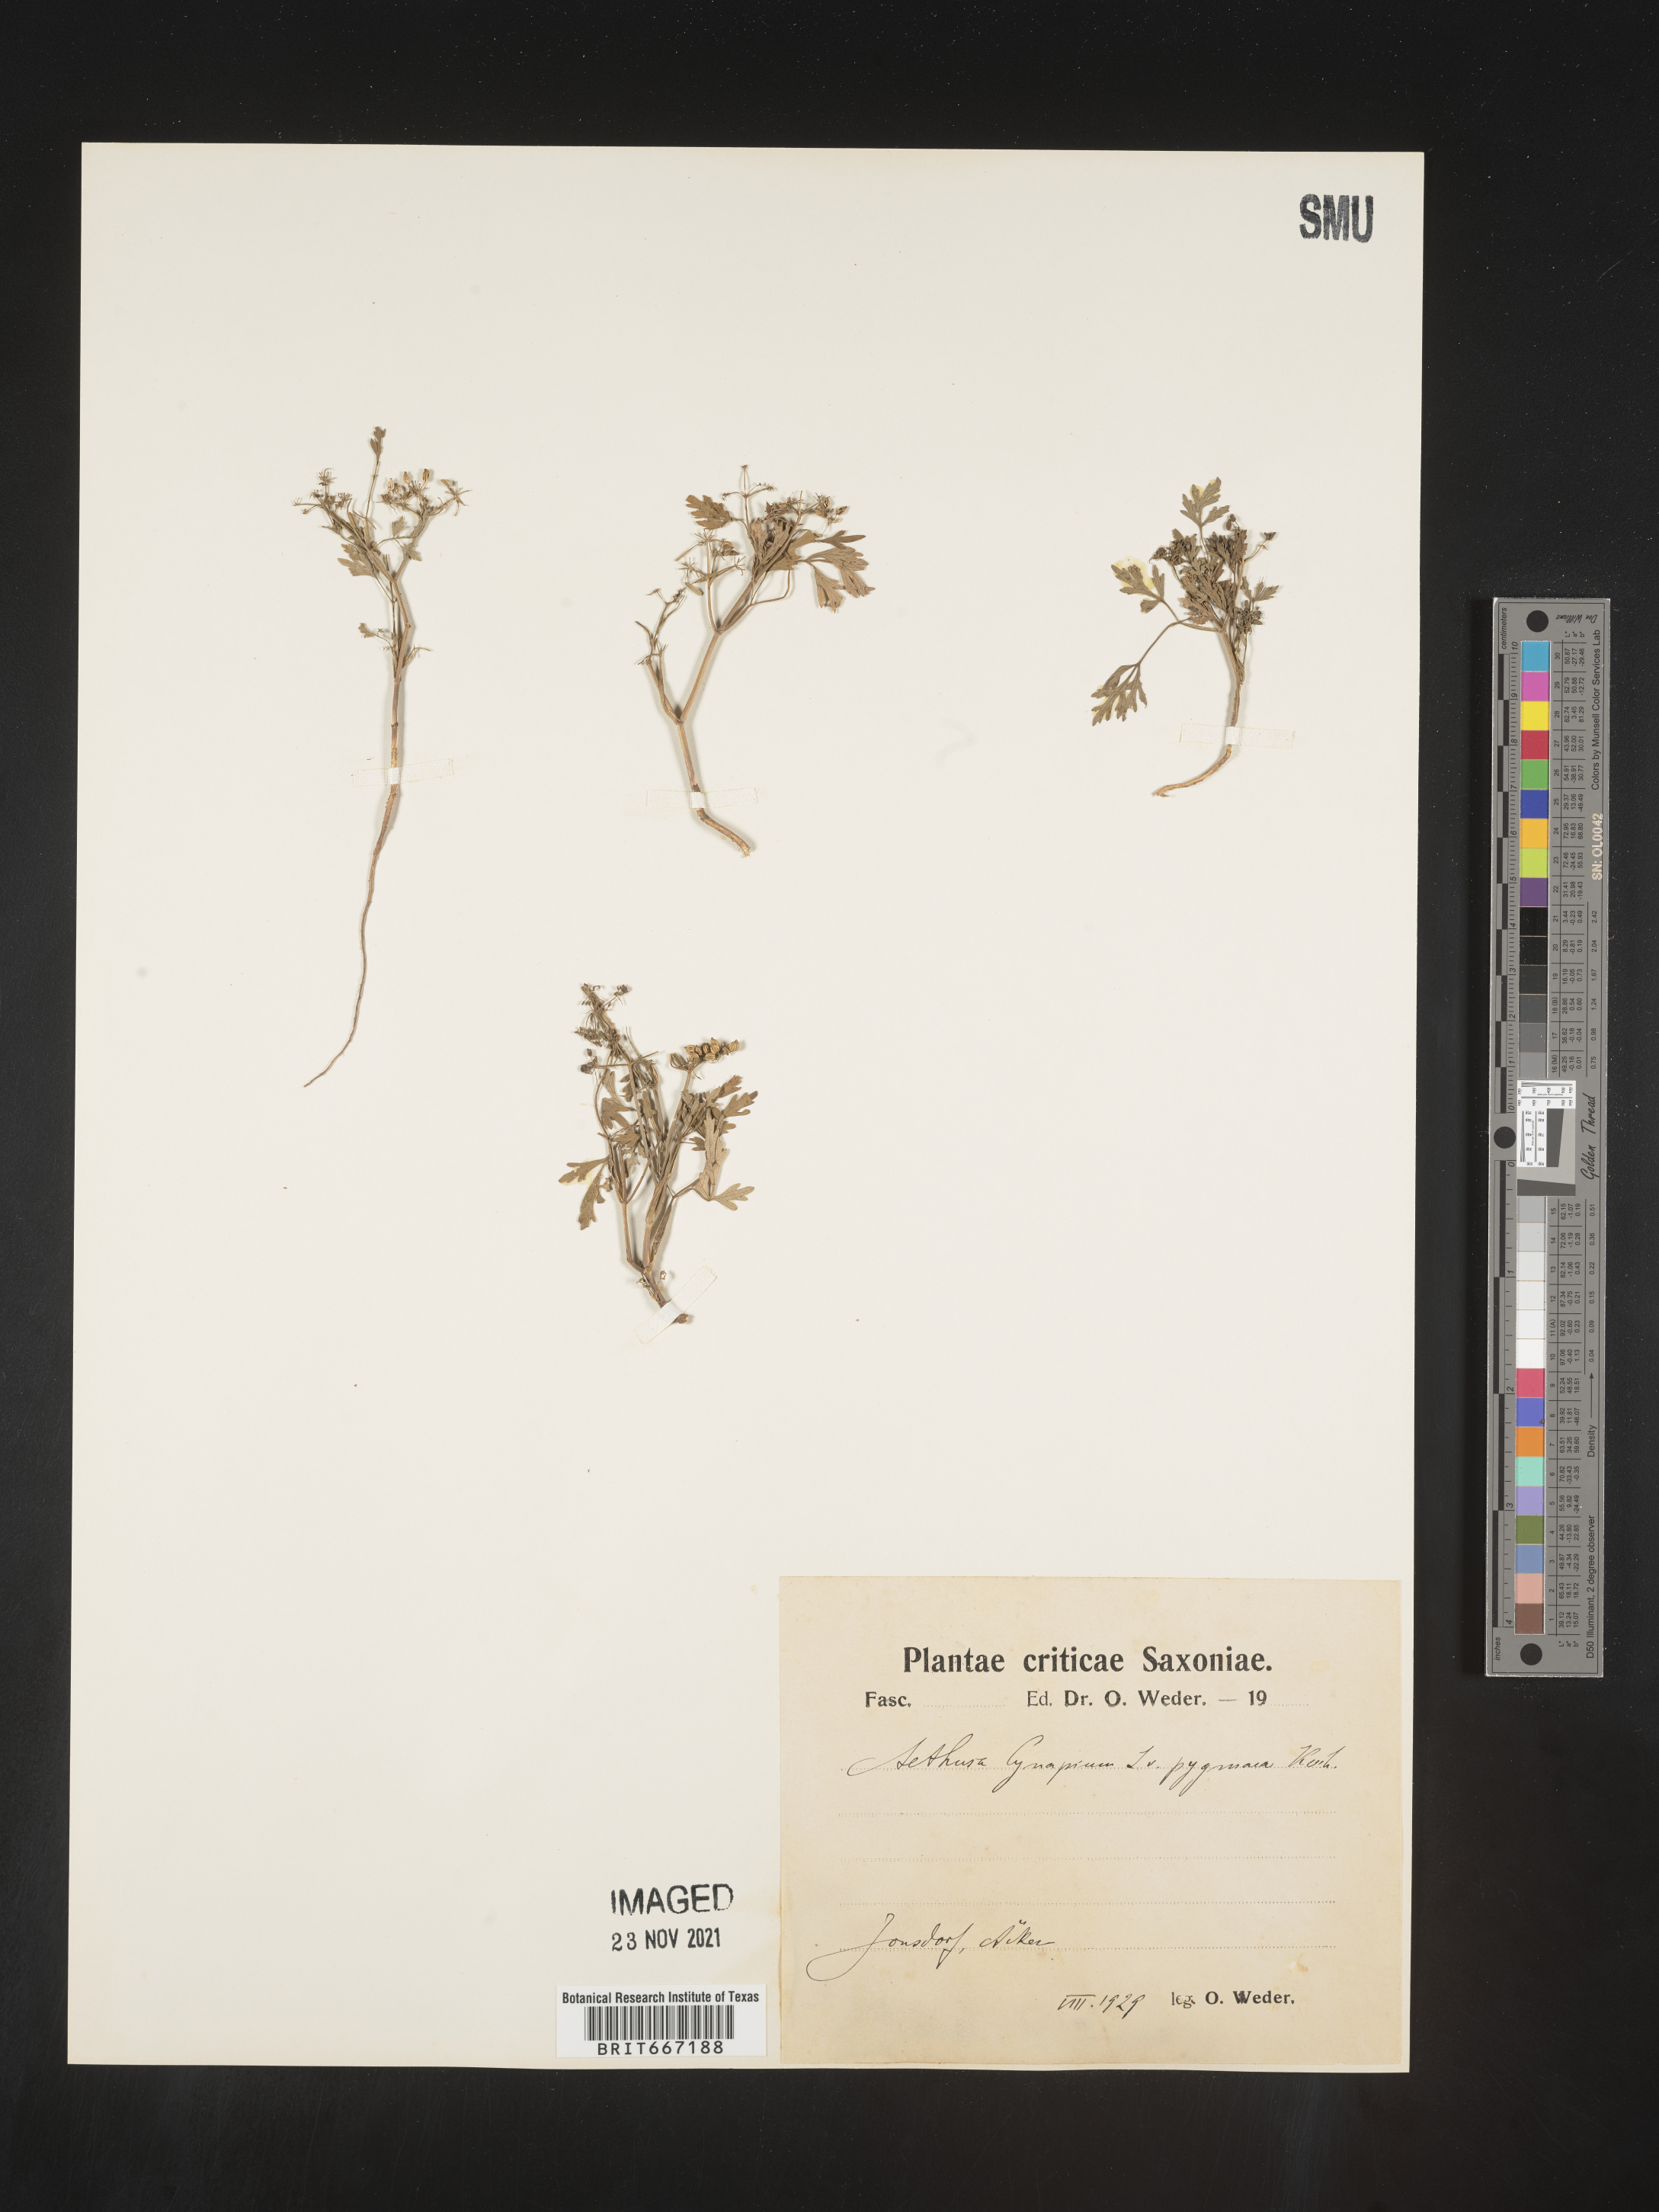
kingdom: Plantae
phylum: Tracheophyta
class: Magnoliopsida
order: Apiales
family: Apiaceae
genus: Aethusa
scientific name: Aethusa
